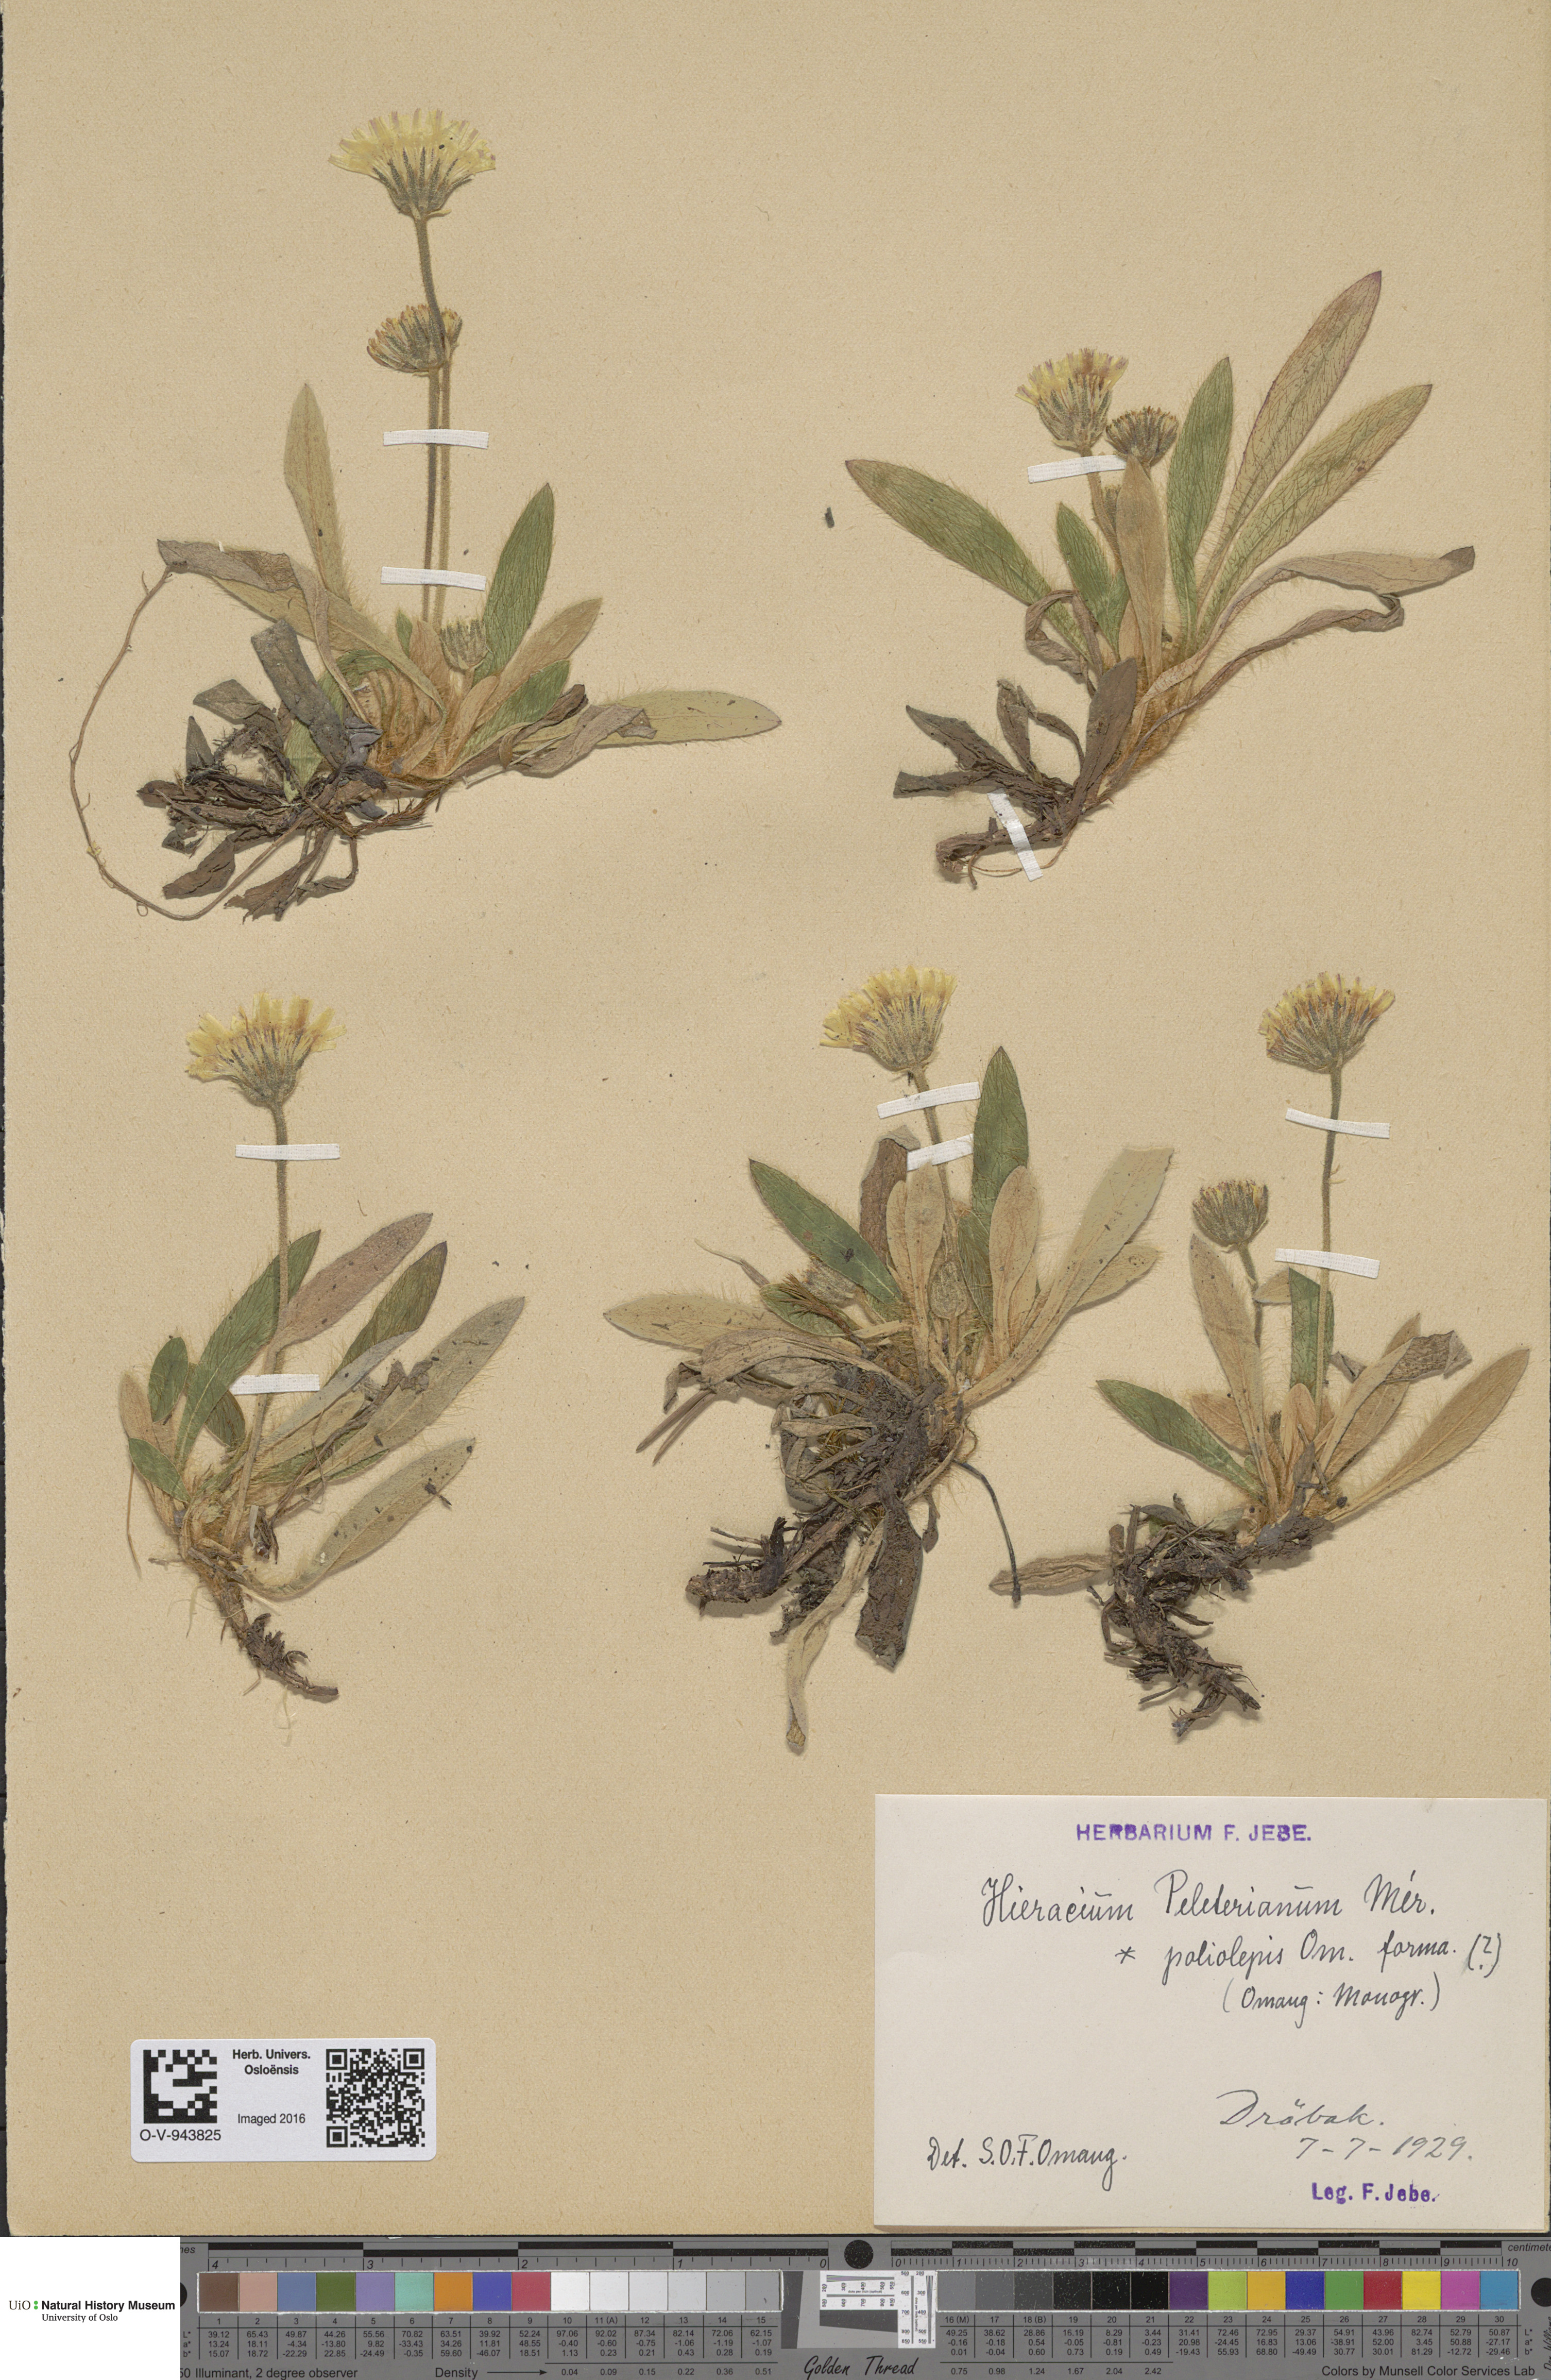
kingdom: Plantae
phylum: Tracheophyta
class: Magnoliopsida
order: Asterales
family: Asteraceae
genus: Pilosella
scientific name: Pilosella peleteriana
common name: Shaggy mouse-ear-hawkweed
